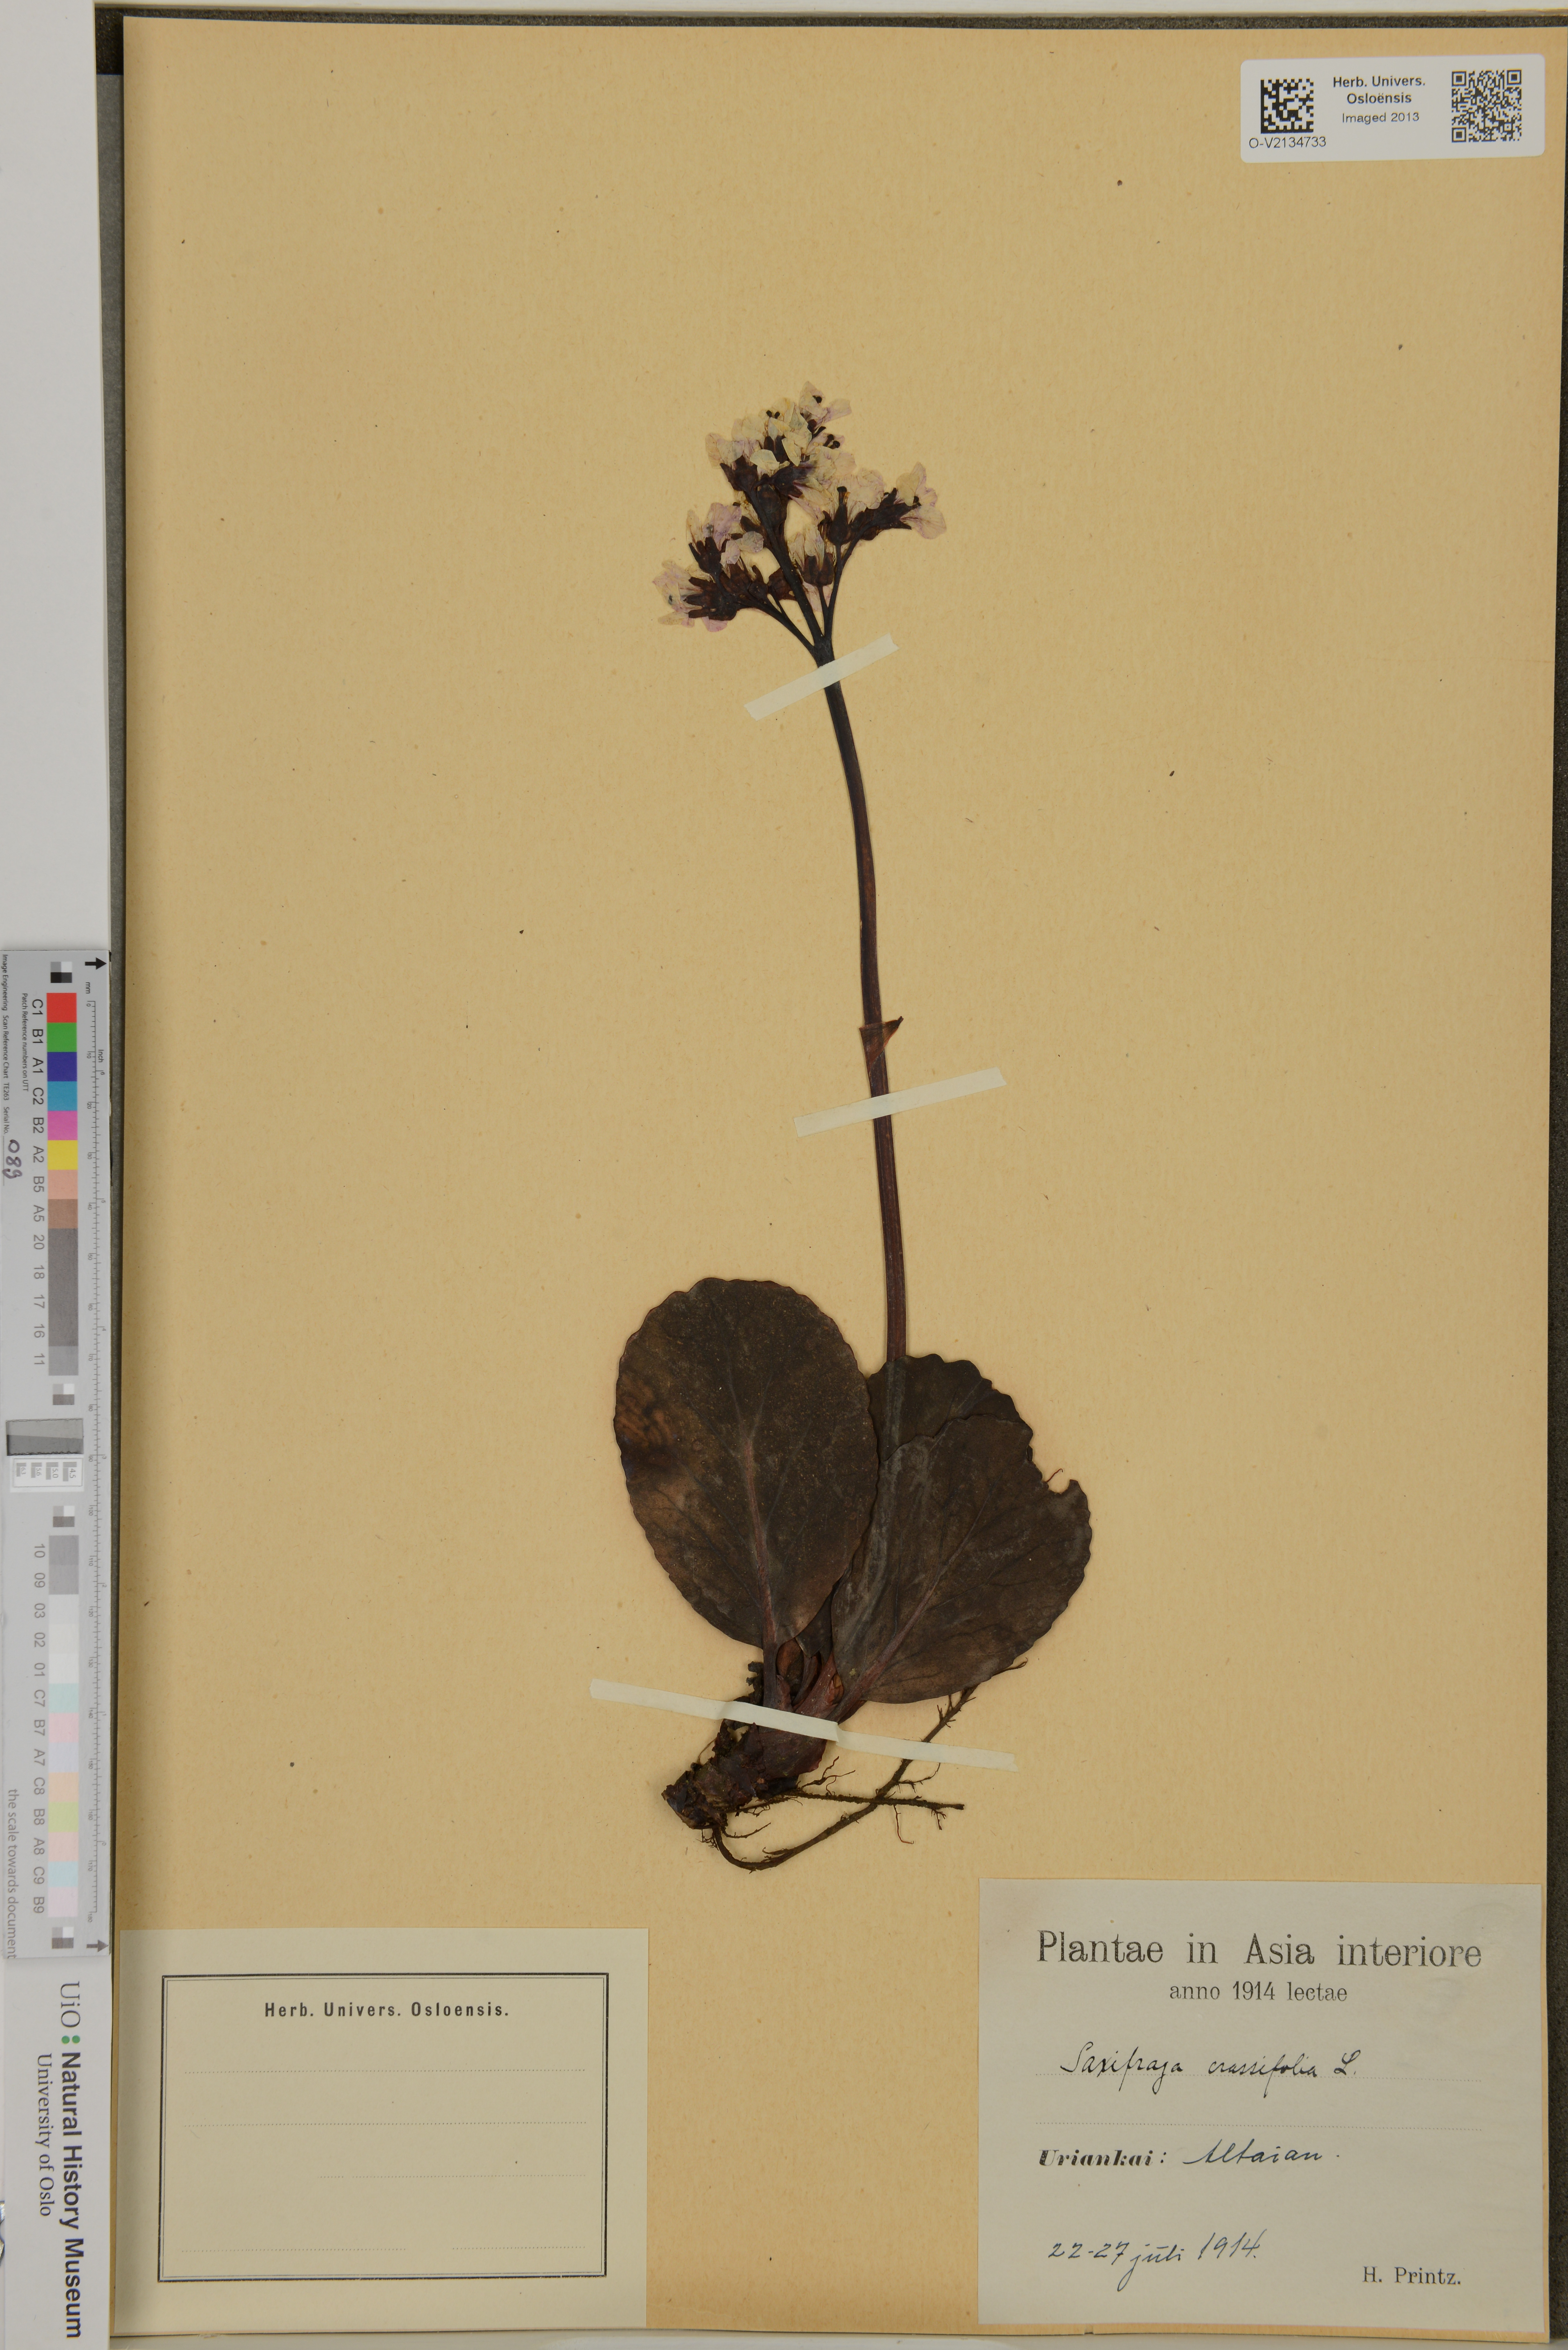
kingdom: Plantae
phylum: Tracheophyta
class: Magnoliopsida
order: Saxifragales
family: Saxifragaceae
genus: Bergenia
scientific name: Bergenia crassifolia
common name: Elephant-ears
